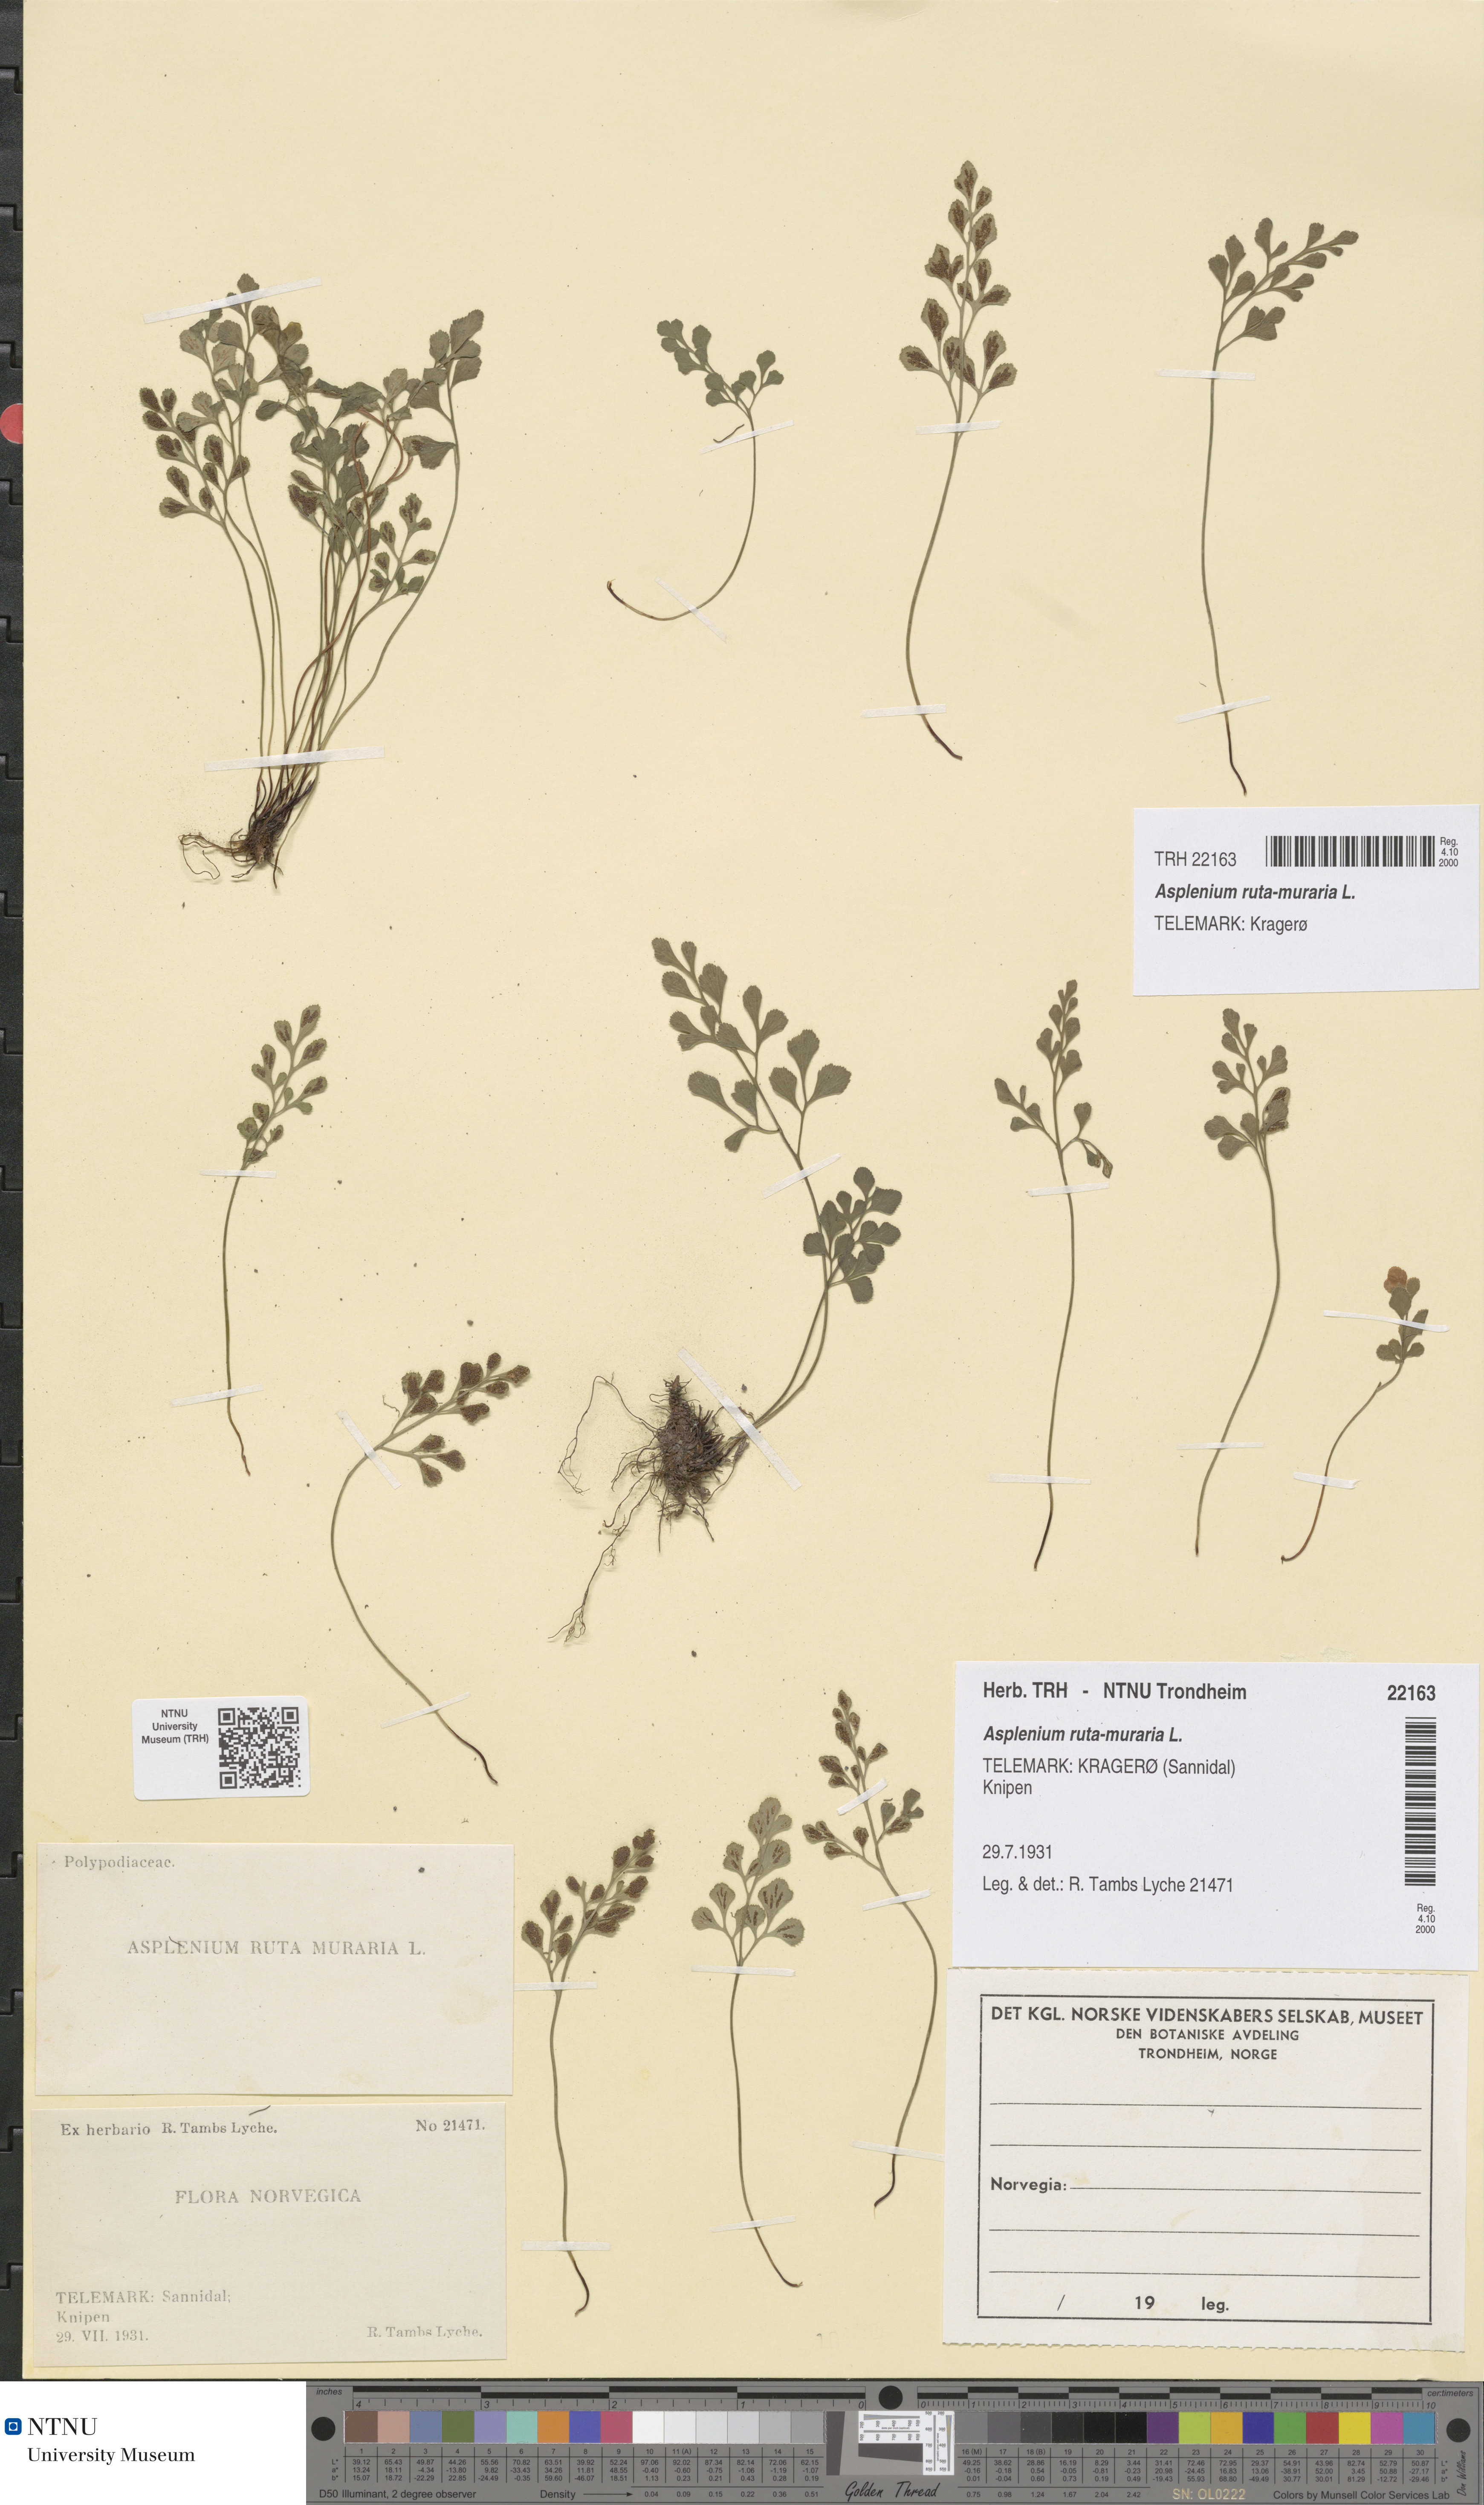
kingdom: Plantae
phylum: Tracheophyta
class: Polypodiopsida
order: Polypodiales
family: Aspleniaceae
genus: Asplenium
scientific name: Asplenium ruta-muraria
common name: Wall-rue
